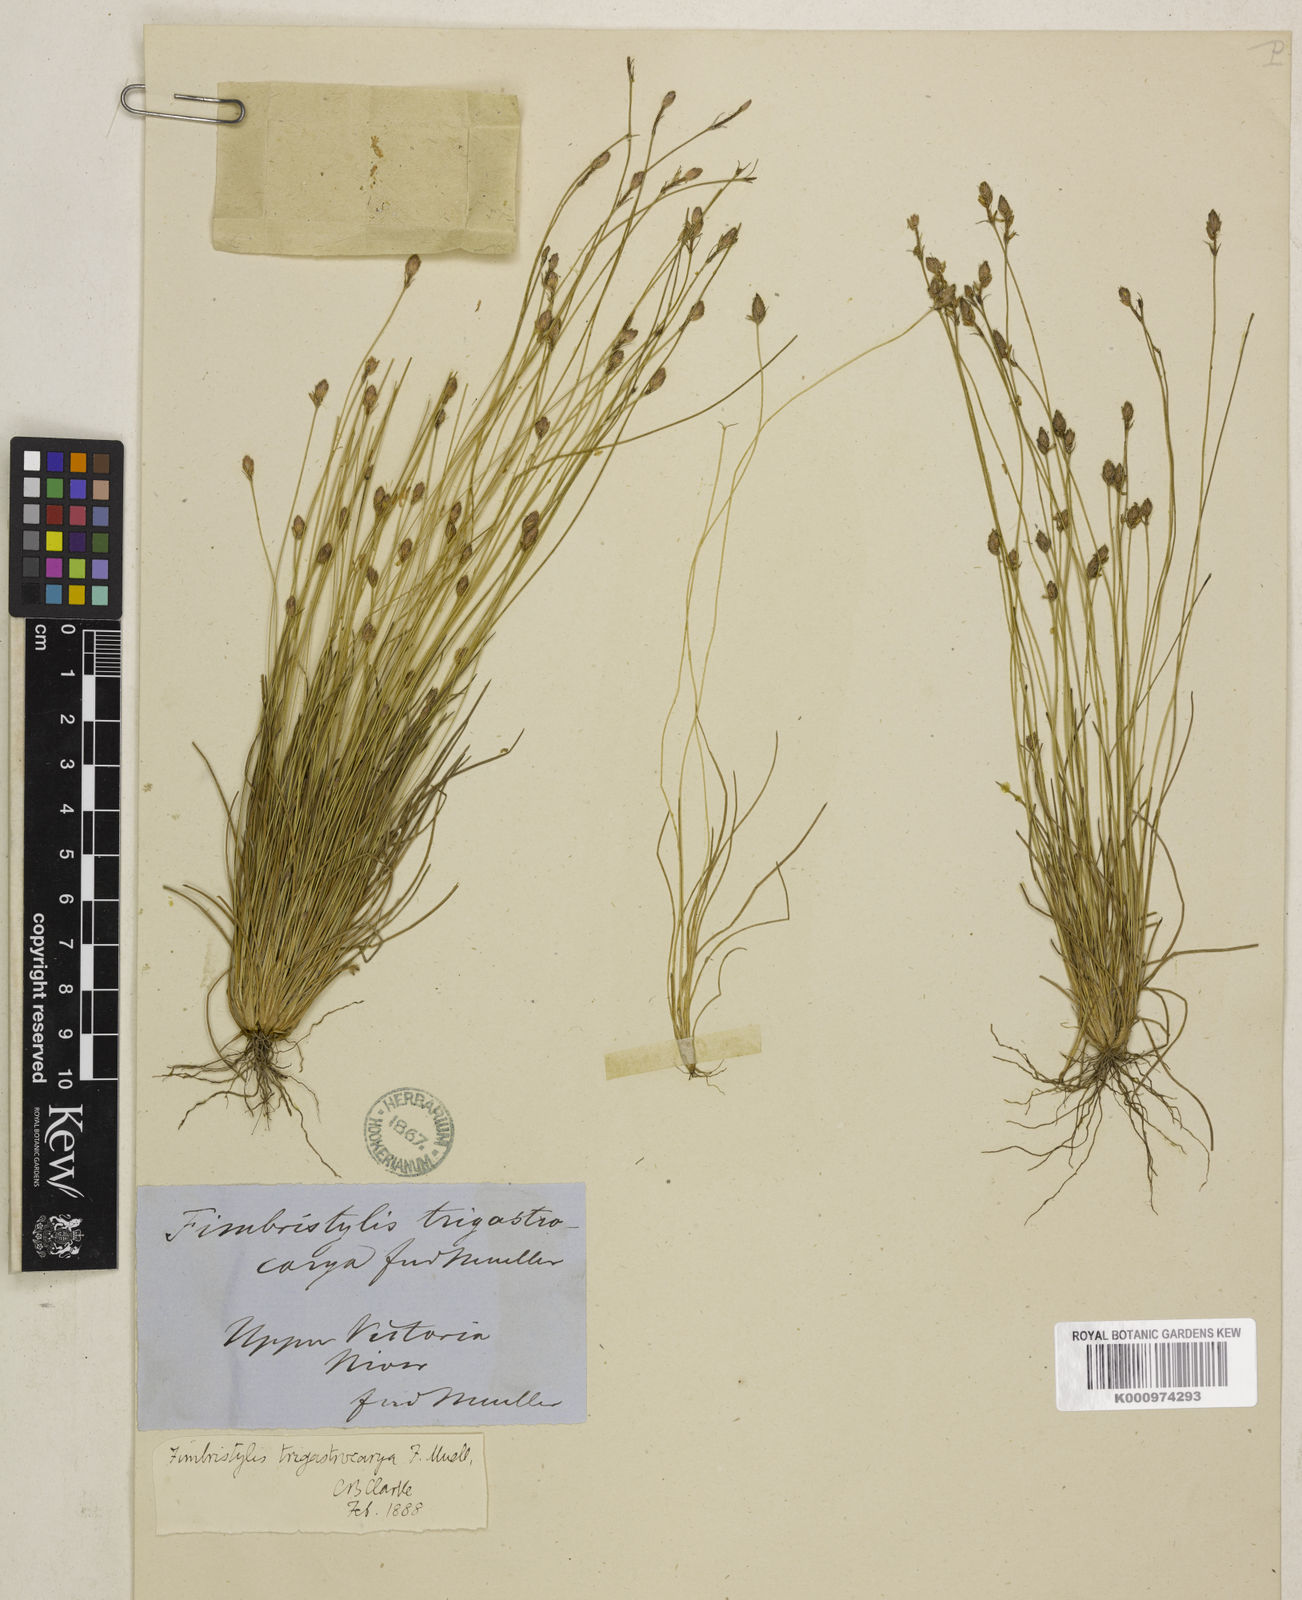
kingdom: Plantae
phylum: Tracheophyta
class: Liliopsida
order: Poales
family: Cyperaceae
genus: Fimbristylis
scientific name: Fimbristylis trigastrocarya
